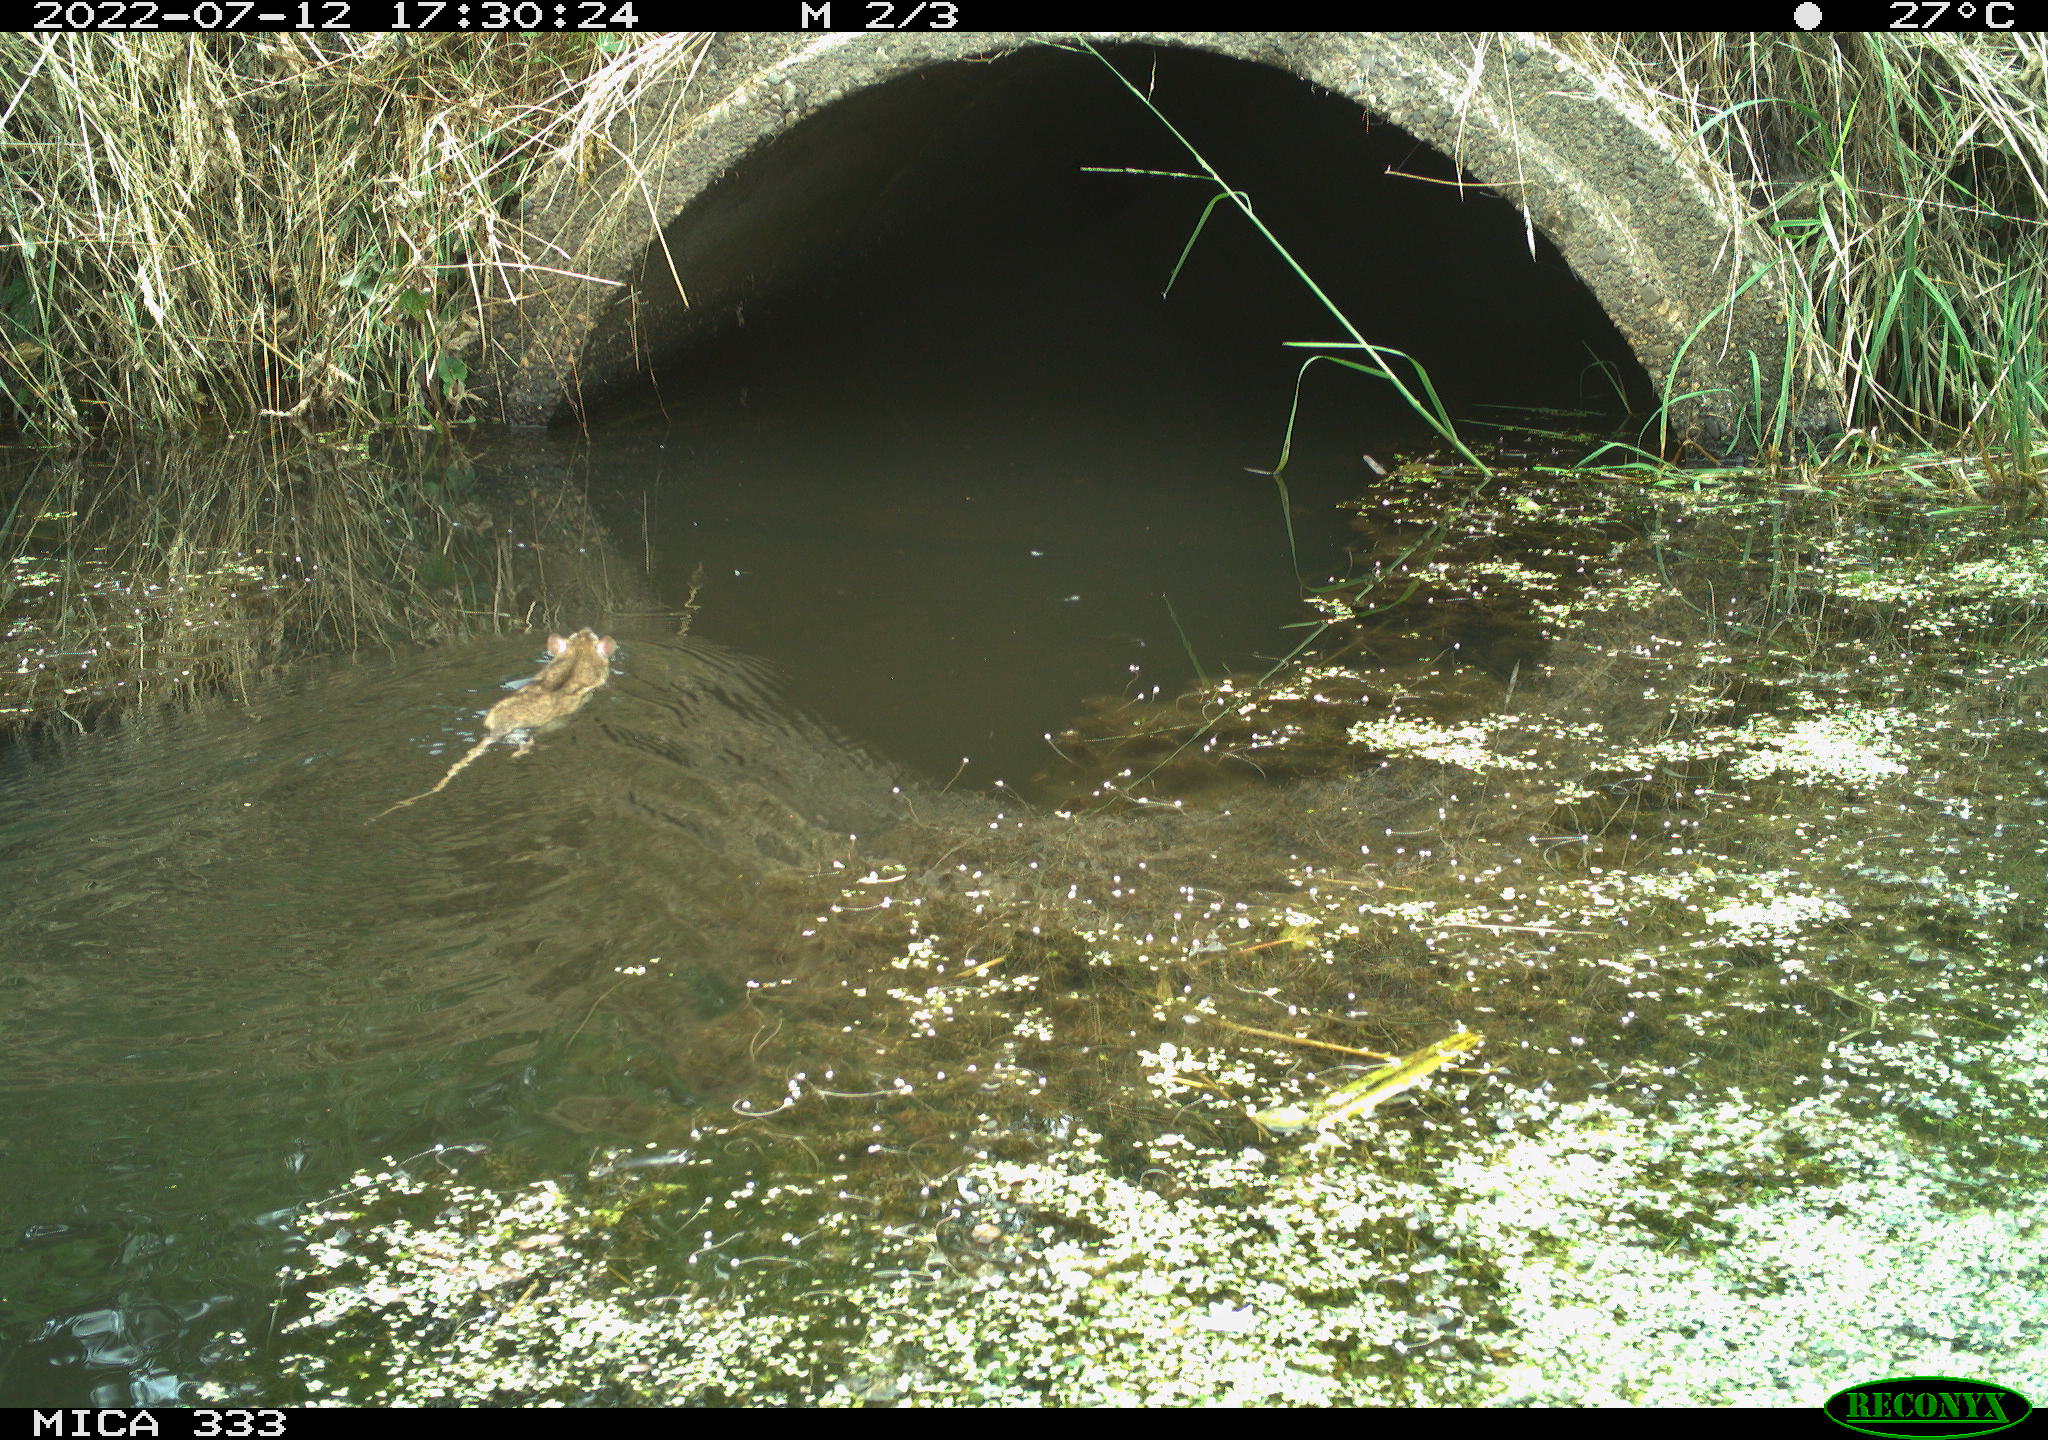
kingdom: Animalia
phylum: Chordata
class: Mammalia
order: Rodentia
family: Muridae
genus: Rattus
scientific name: Rattus norvegicus
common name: Brown rat
